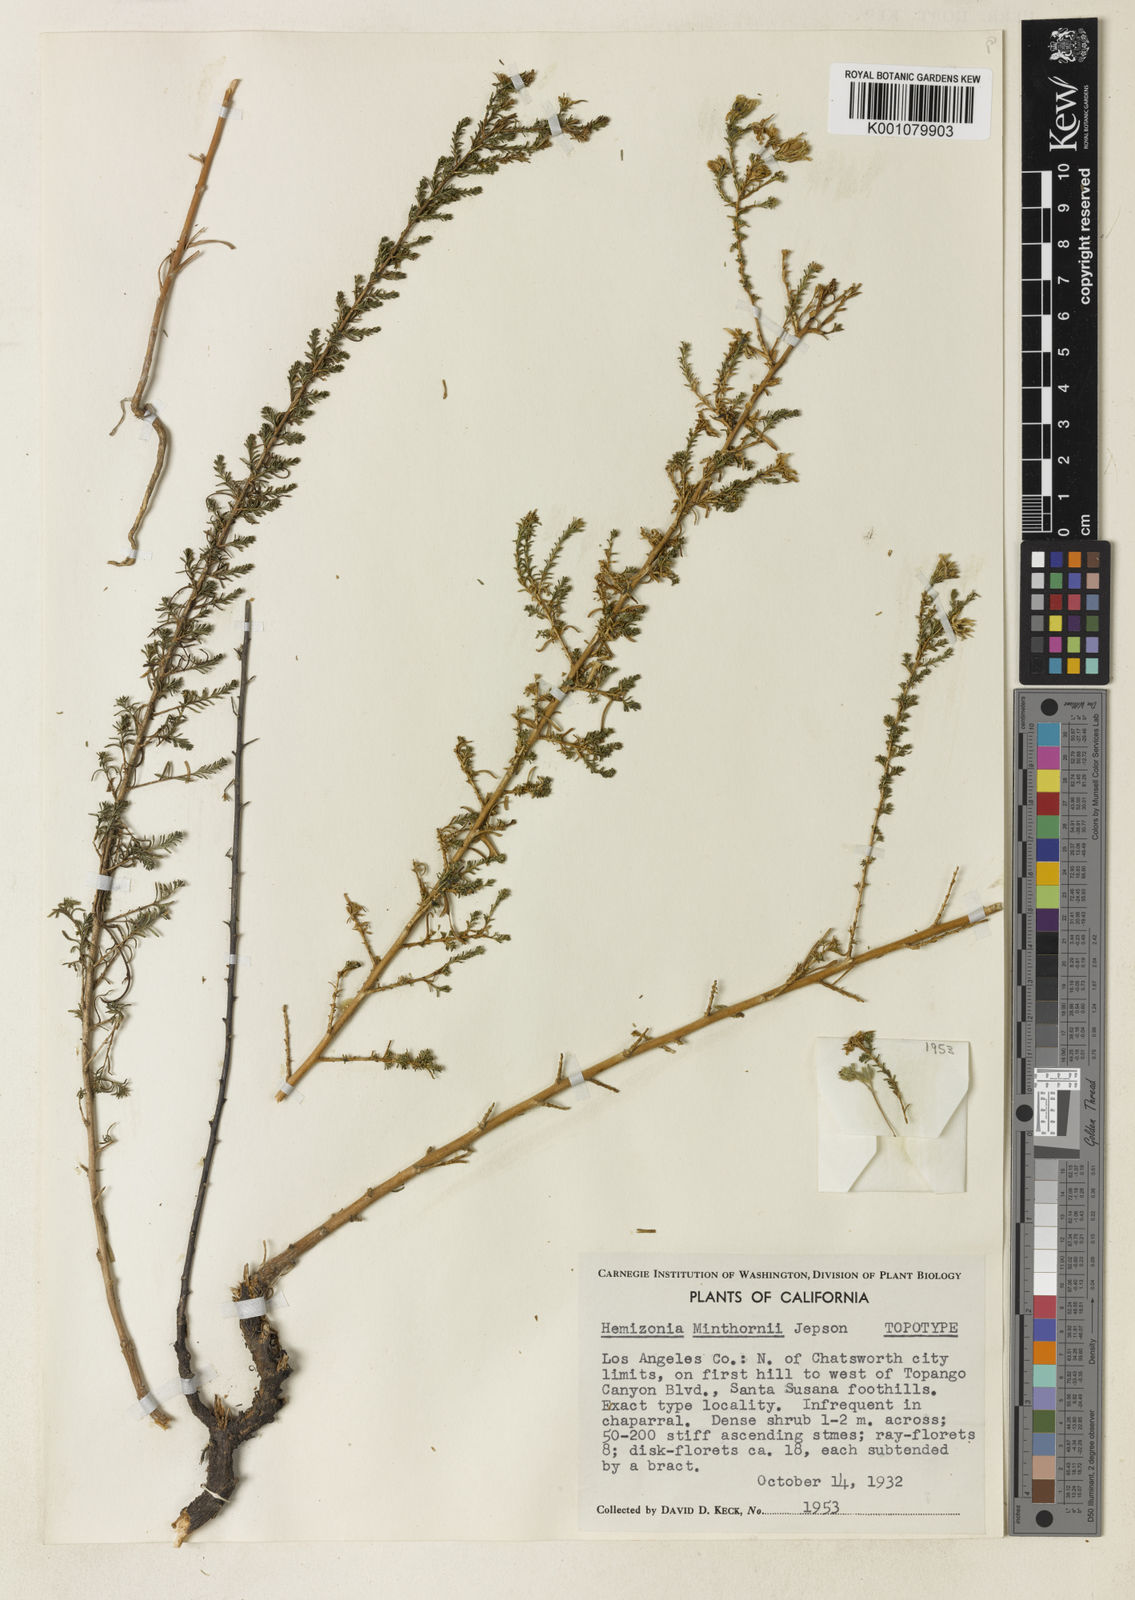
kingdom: Plantae
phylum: Tracheophyta
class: Magnoliopsida
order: Asterales
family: Asteraceae
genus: Deinandra
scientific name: Deinandra minthornii
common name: Santa susana tarplant
